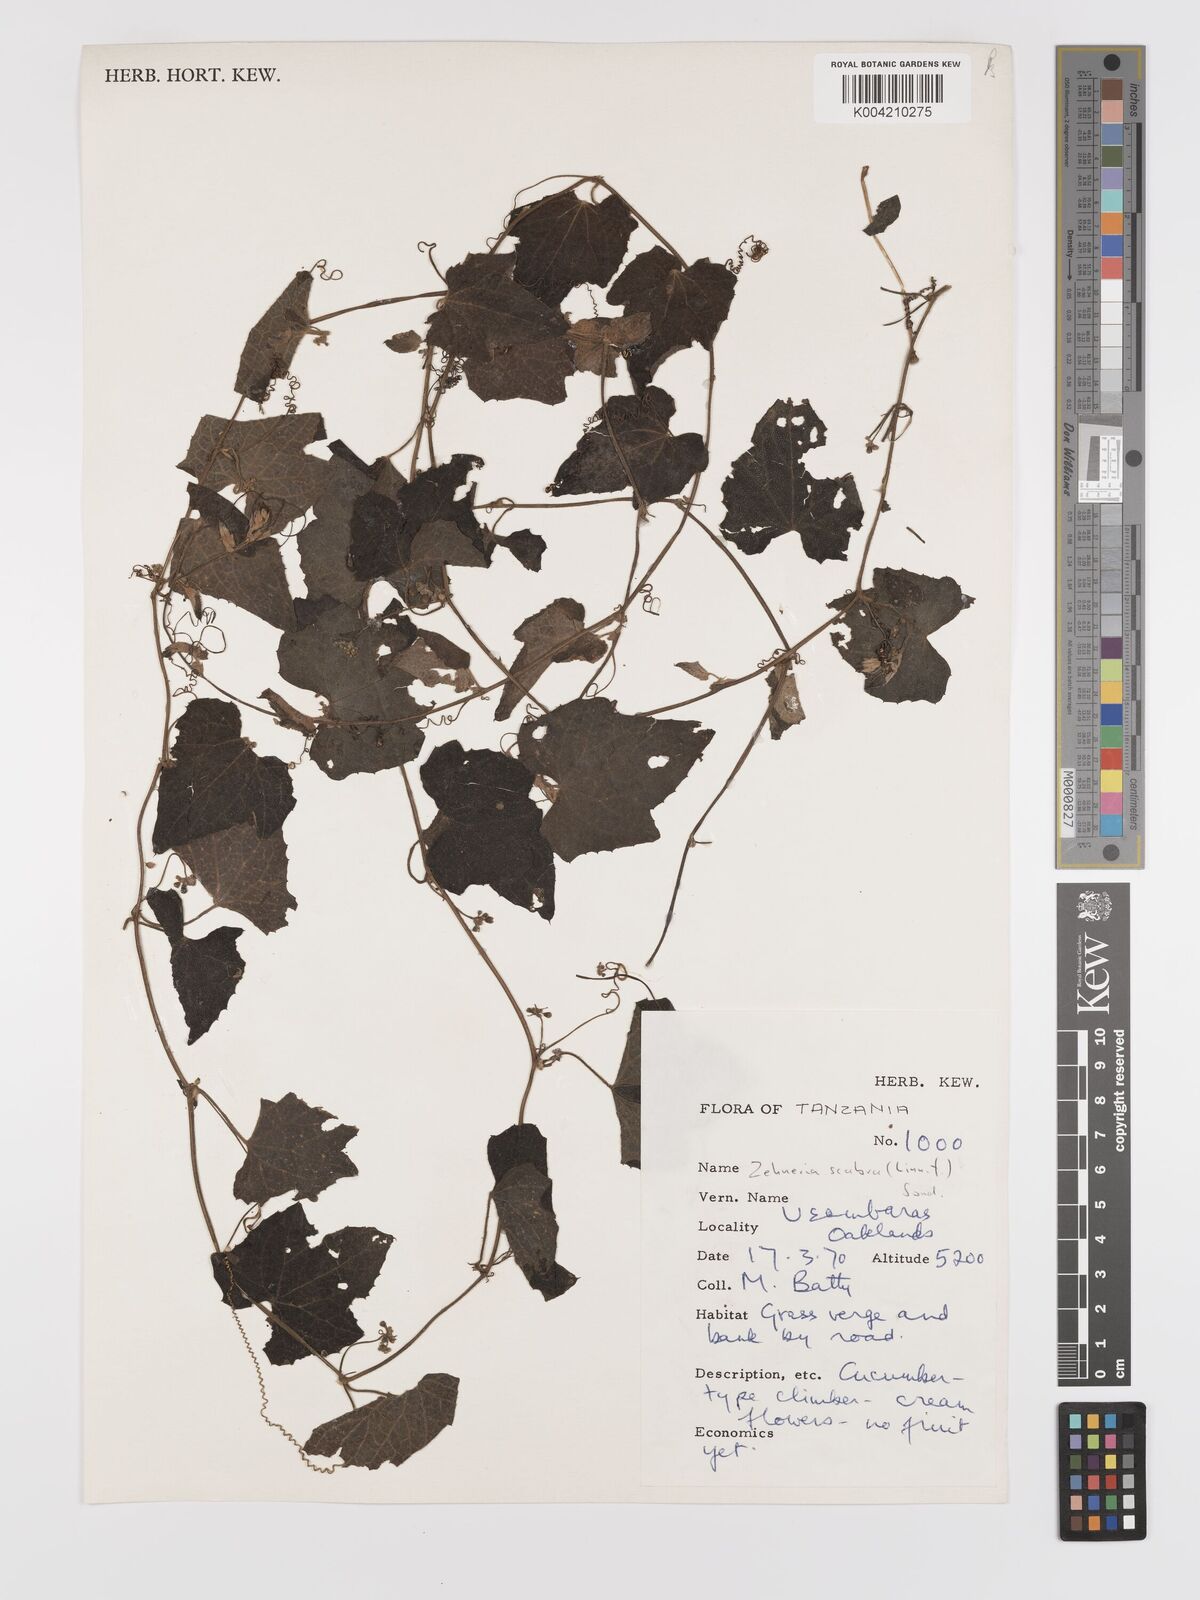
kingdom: Plantae
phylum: Tracheophyta
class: Magnoliopsida
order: Cucurbitales
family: Cucurbitaceae
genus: Zehneria
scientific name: Zehneria scabra
